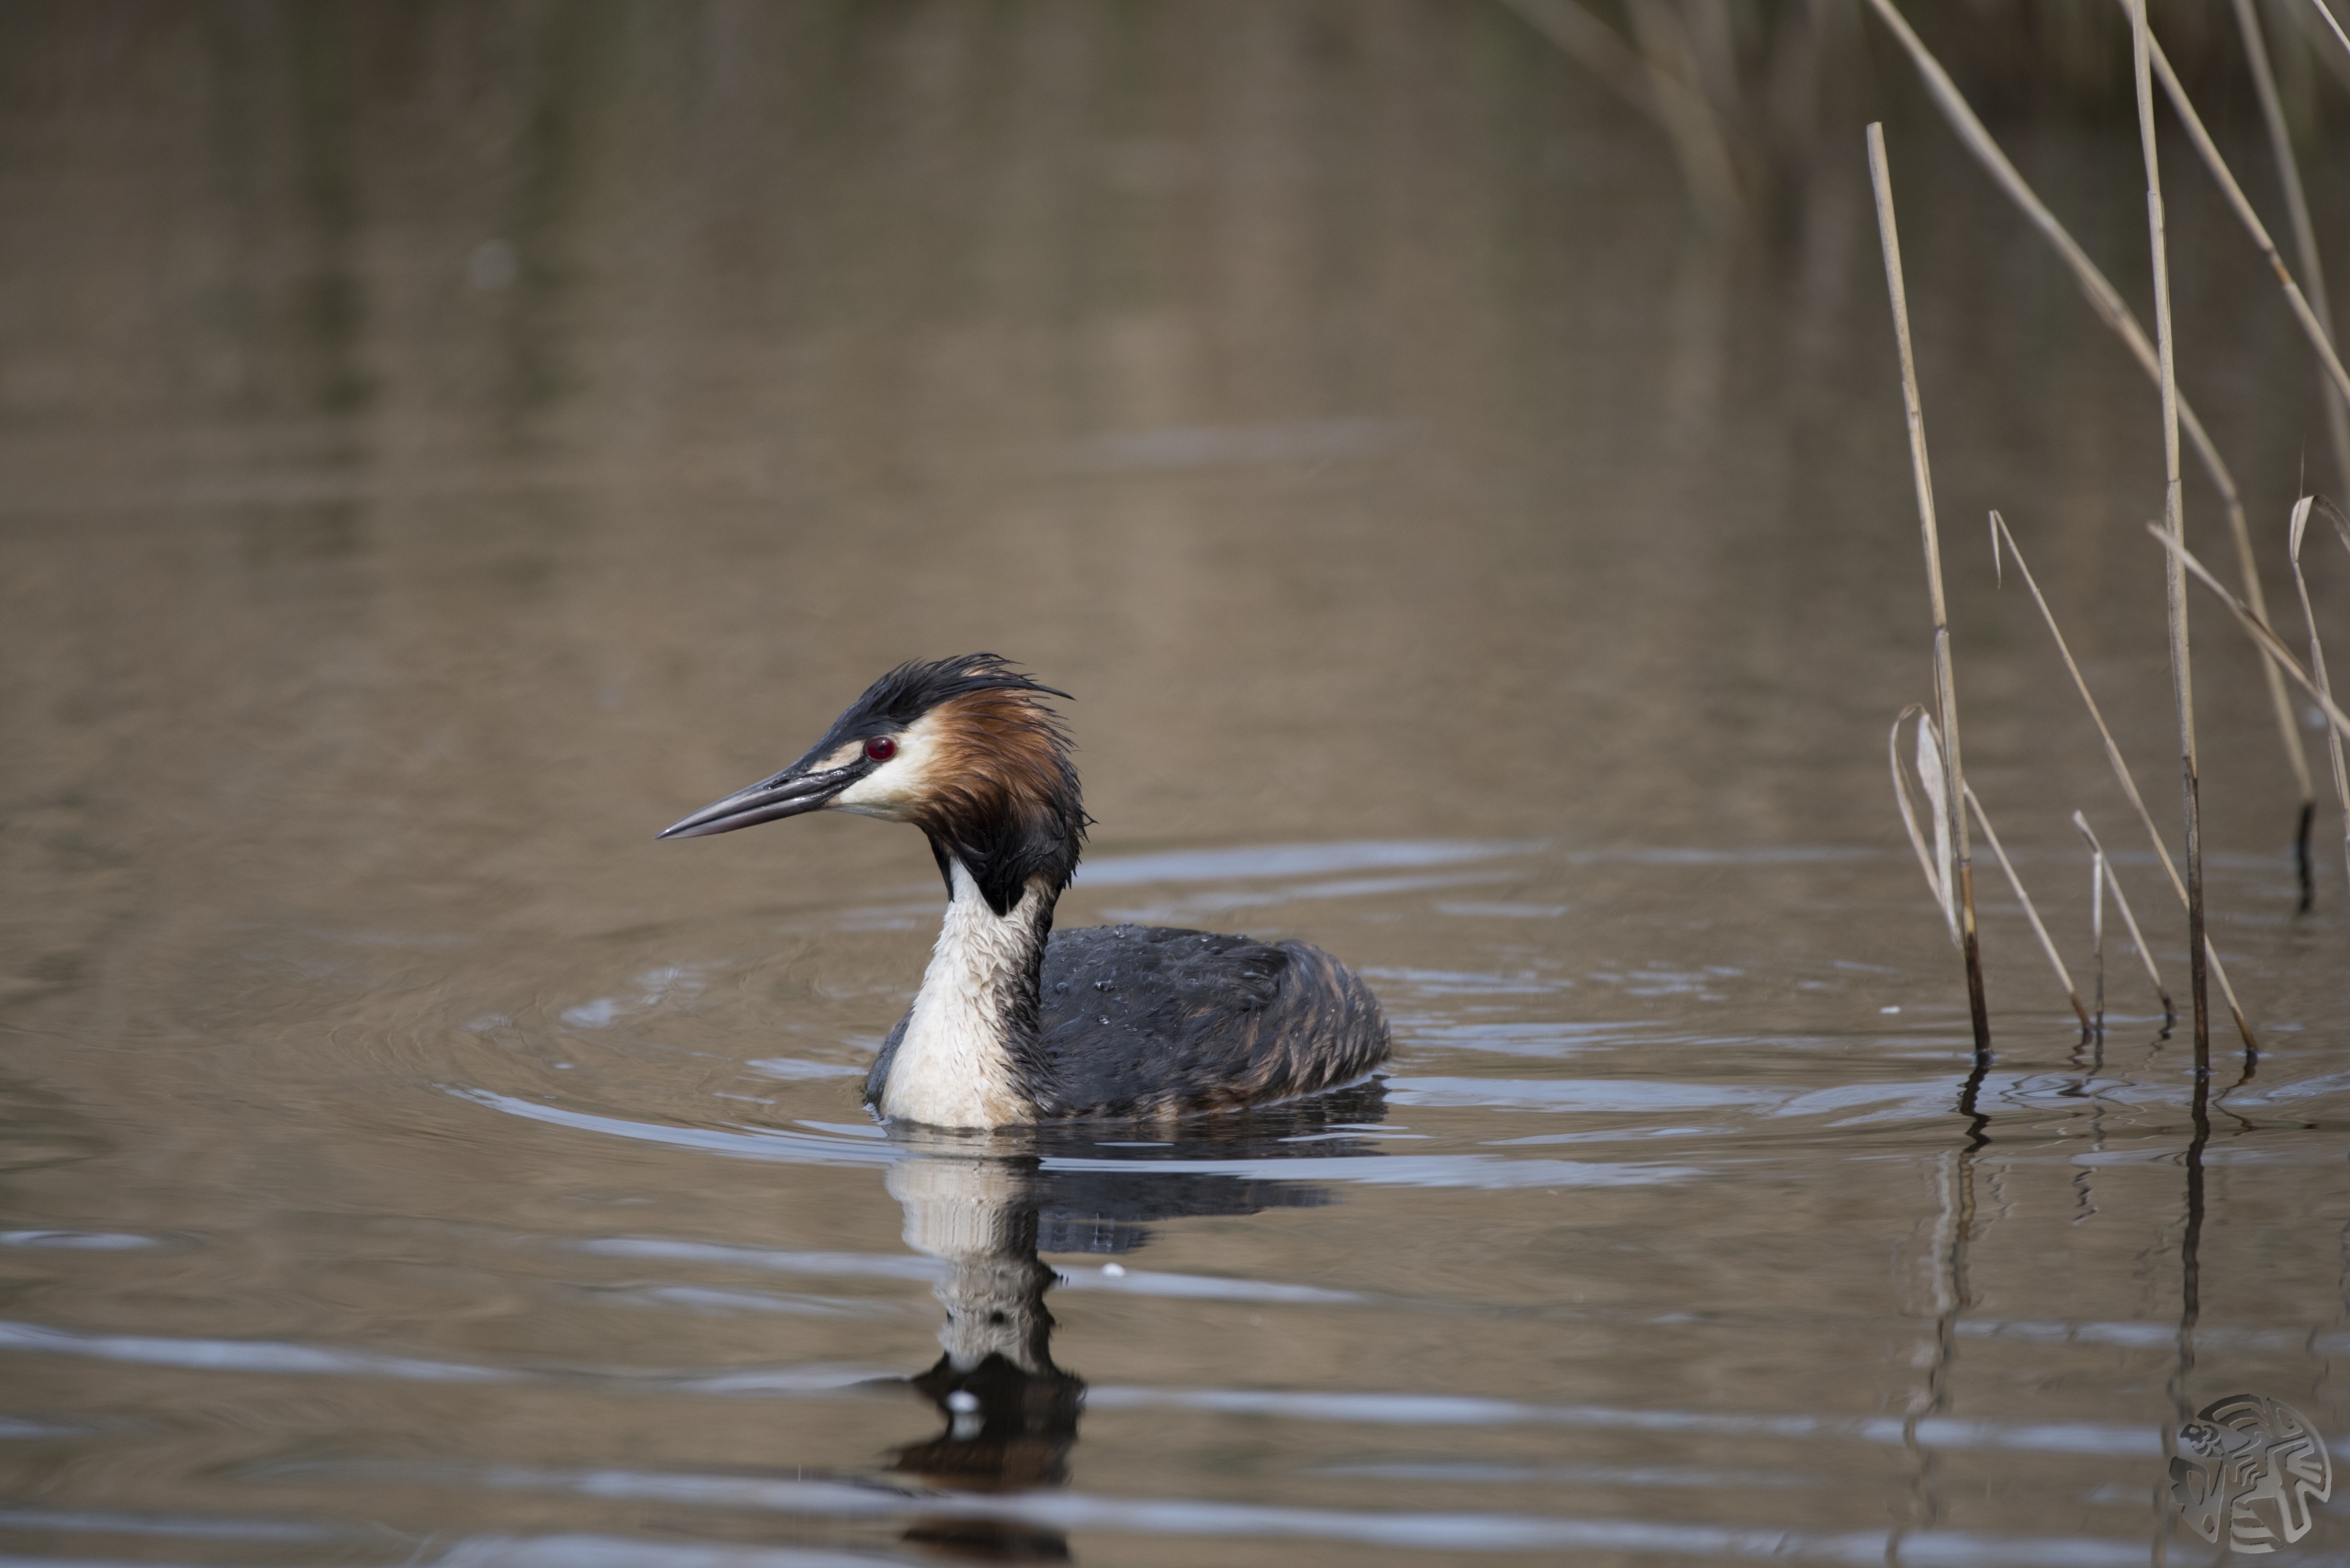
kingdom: Animalia
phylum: Chordata
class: Aves
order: Podicipediformes
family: Podicipedidae
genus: Podiceps
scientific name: Podiceps cristatus
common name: Toppet lappedykker
